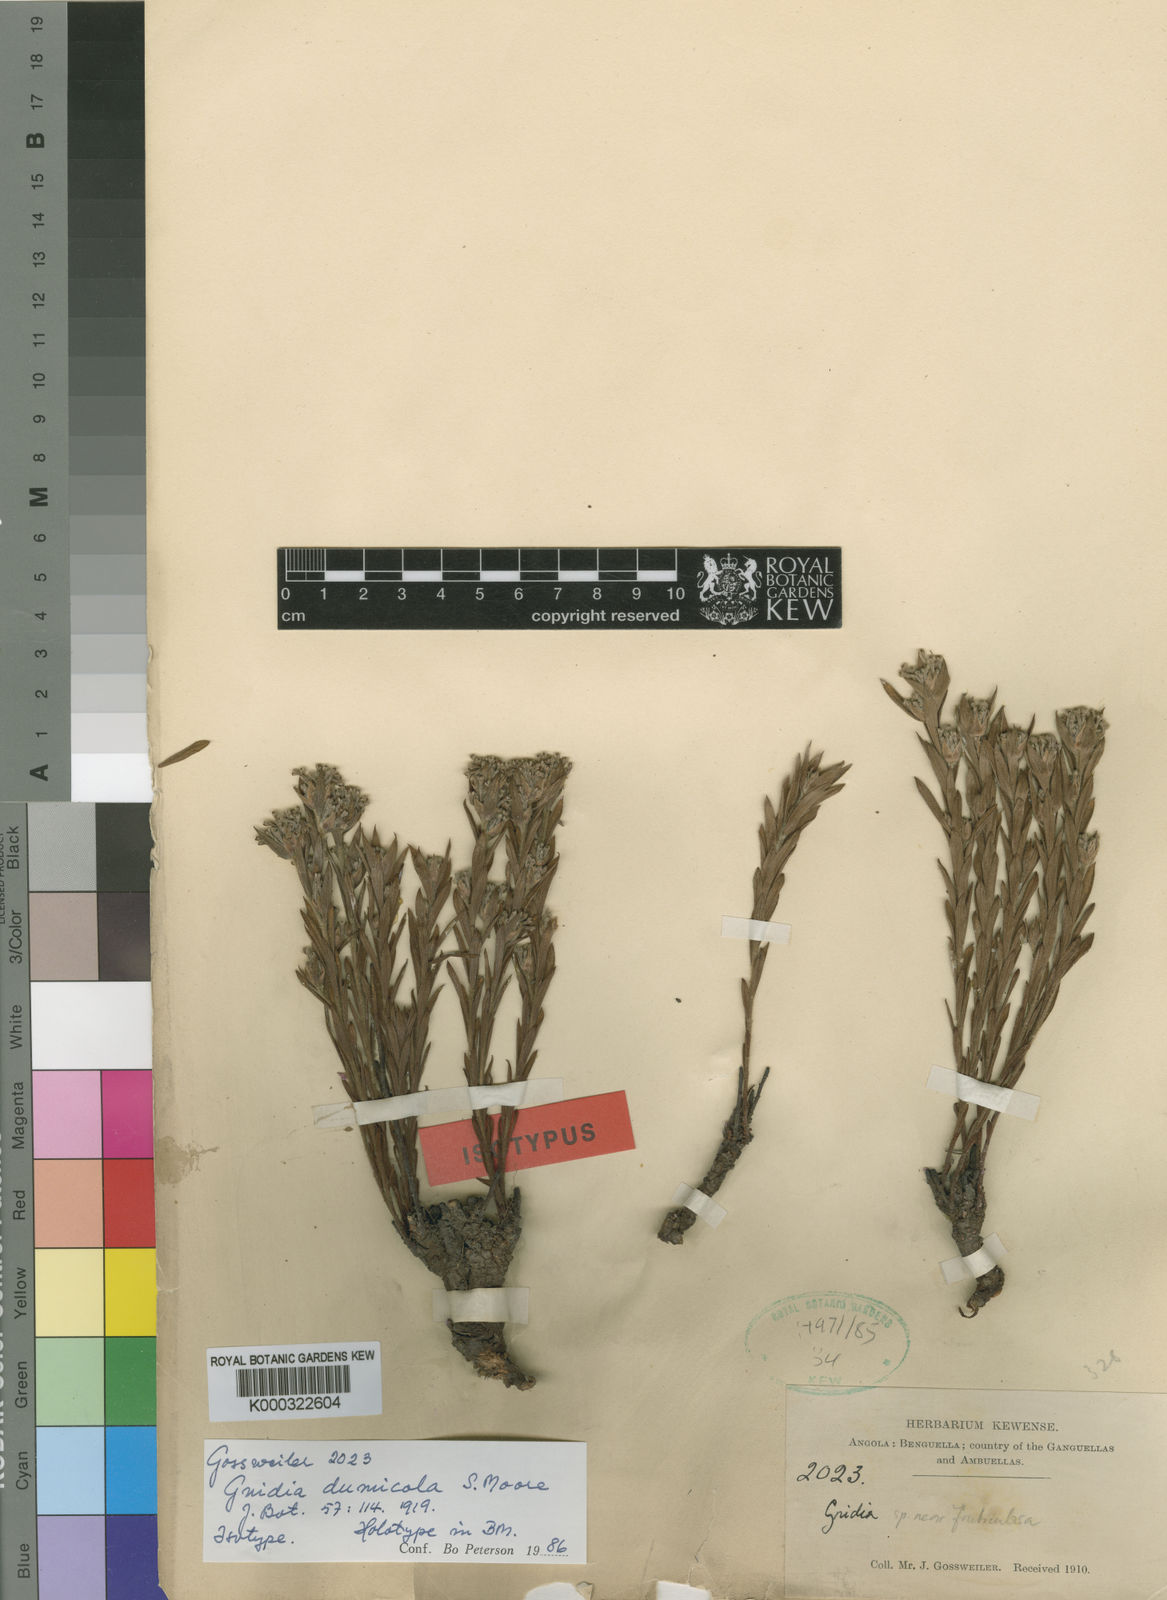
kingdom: Plantae
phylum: Tracheophyta
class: Magnoliopsida
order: Malvales
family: Thymelaeaceae
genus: Gnidia
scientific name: Gnidia dumicola
